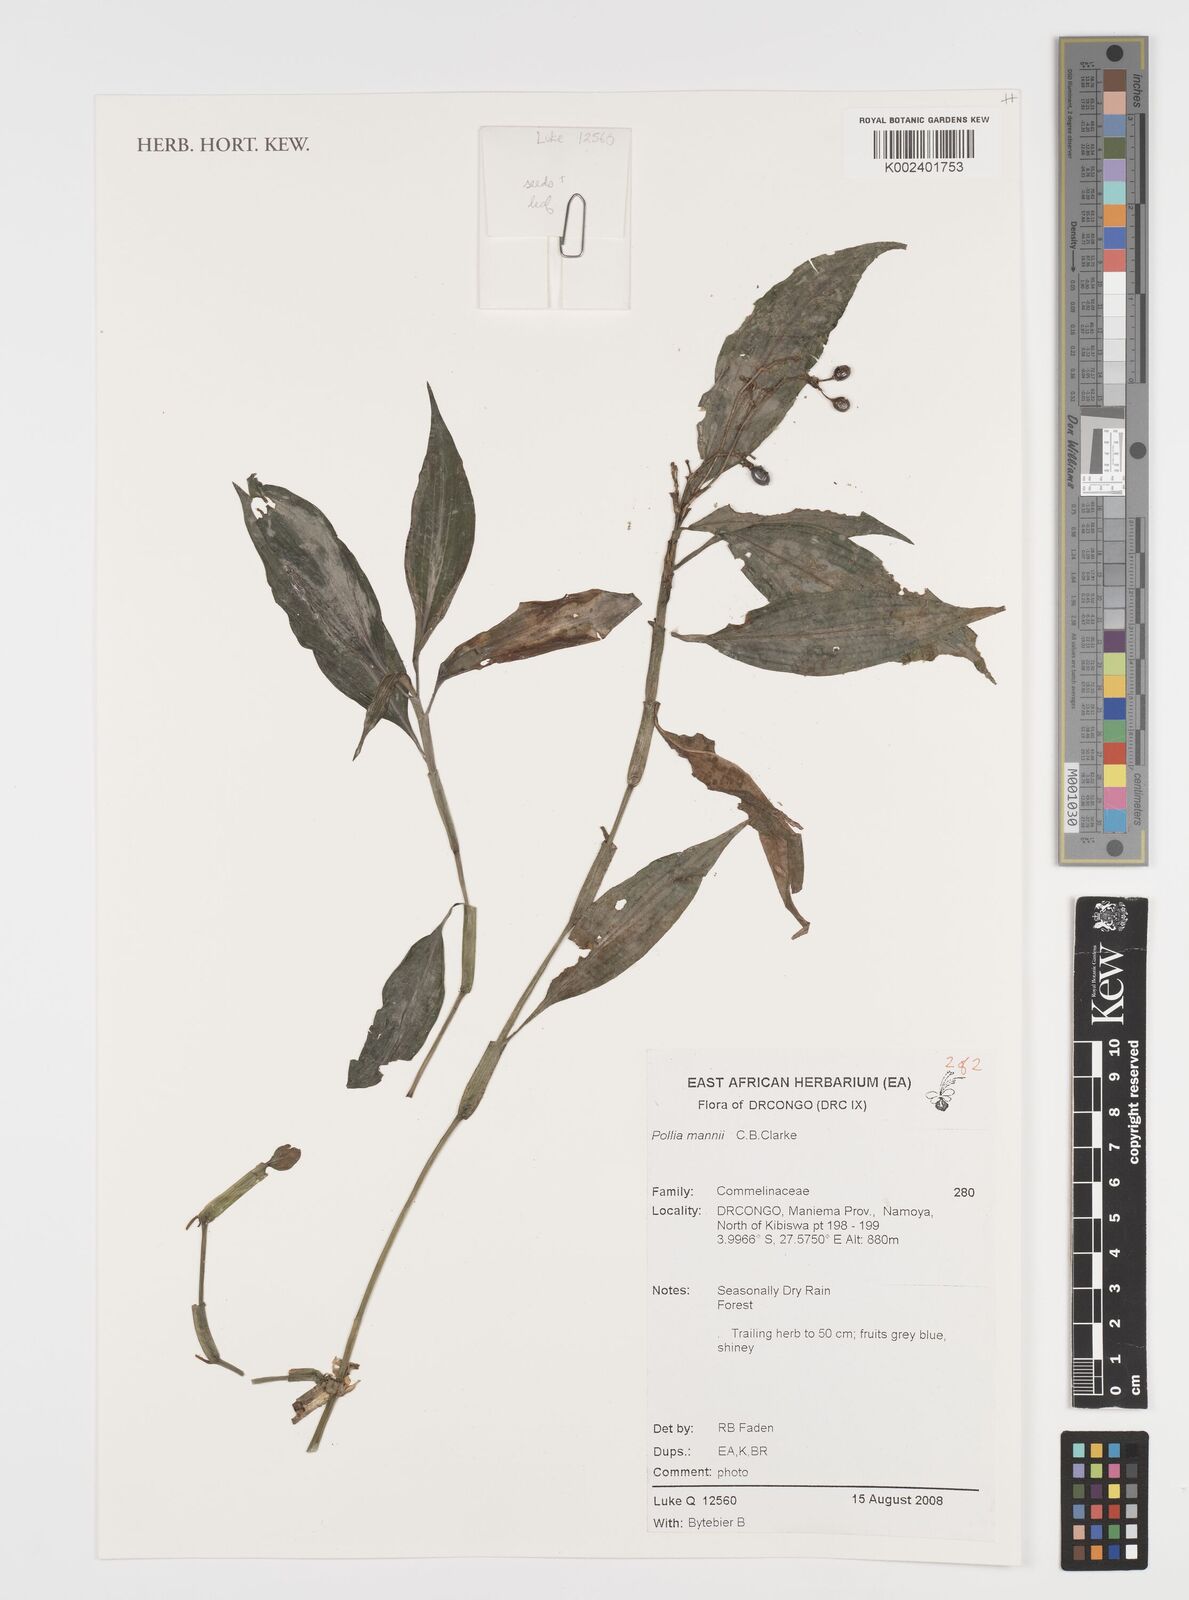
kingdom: Plantae
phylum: Tracheophyta
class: Liliopsida
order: Commelinales
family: Commelinaceae
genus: Pollia
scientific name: Pollia mannii
